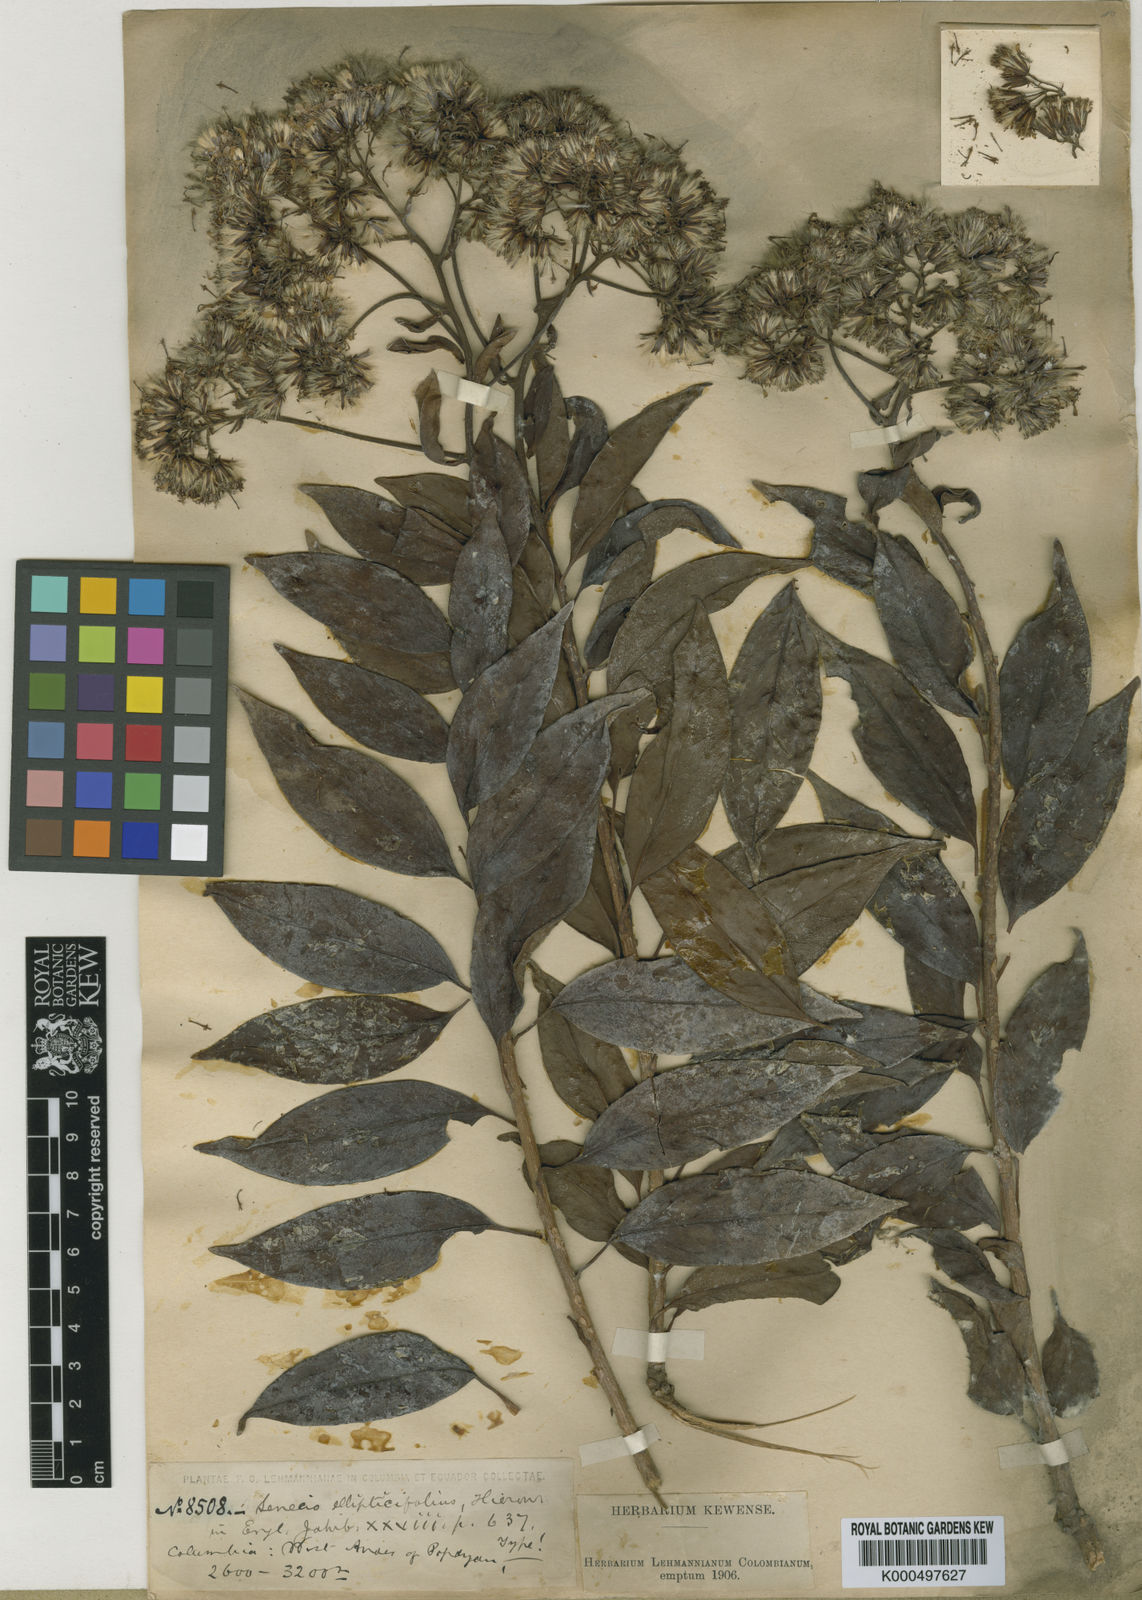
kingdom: Plantae
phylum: Tracheophyta
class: Magnoliopsida
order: Asterales
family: Asteraceae
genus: Pentacalia
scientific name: Pentacalia ellipticifolia
